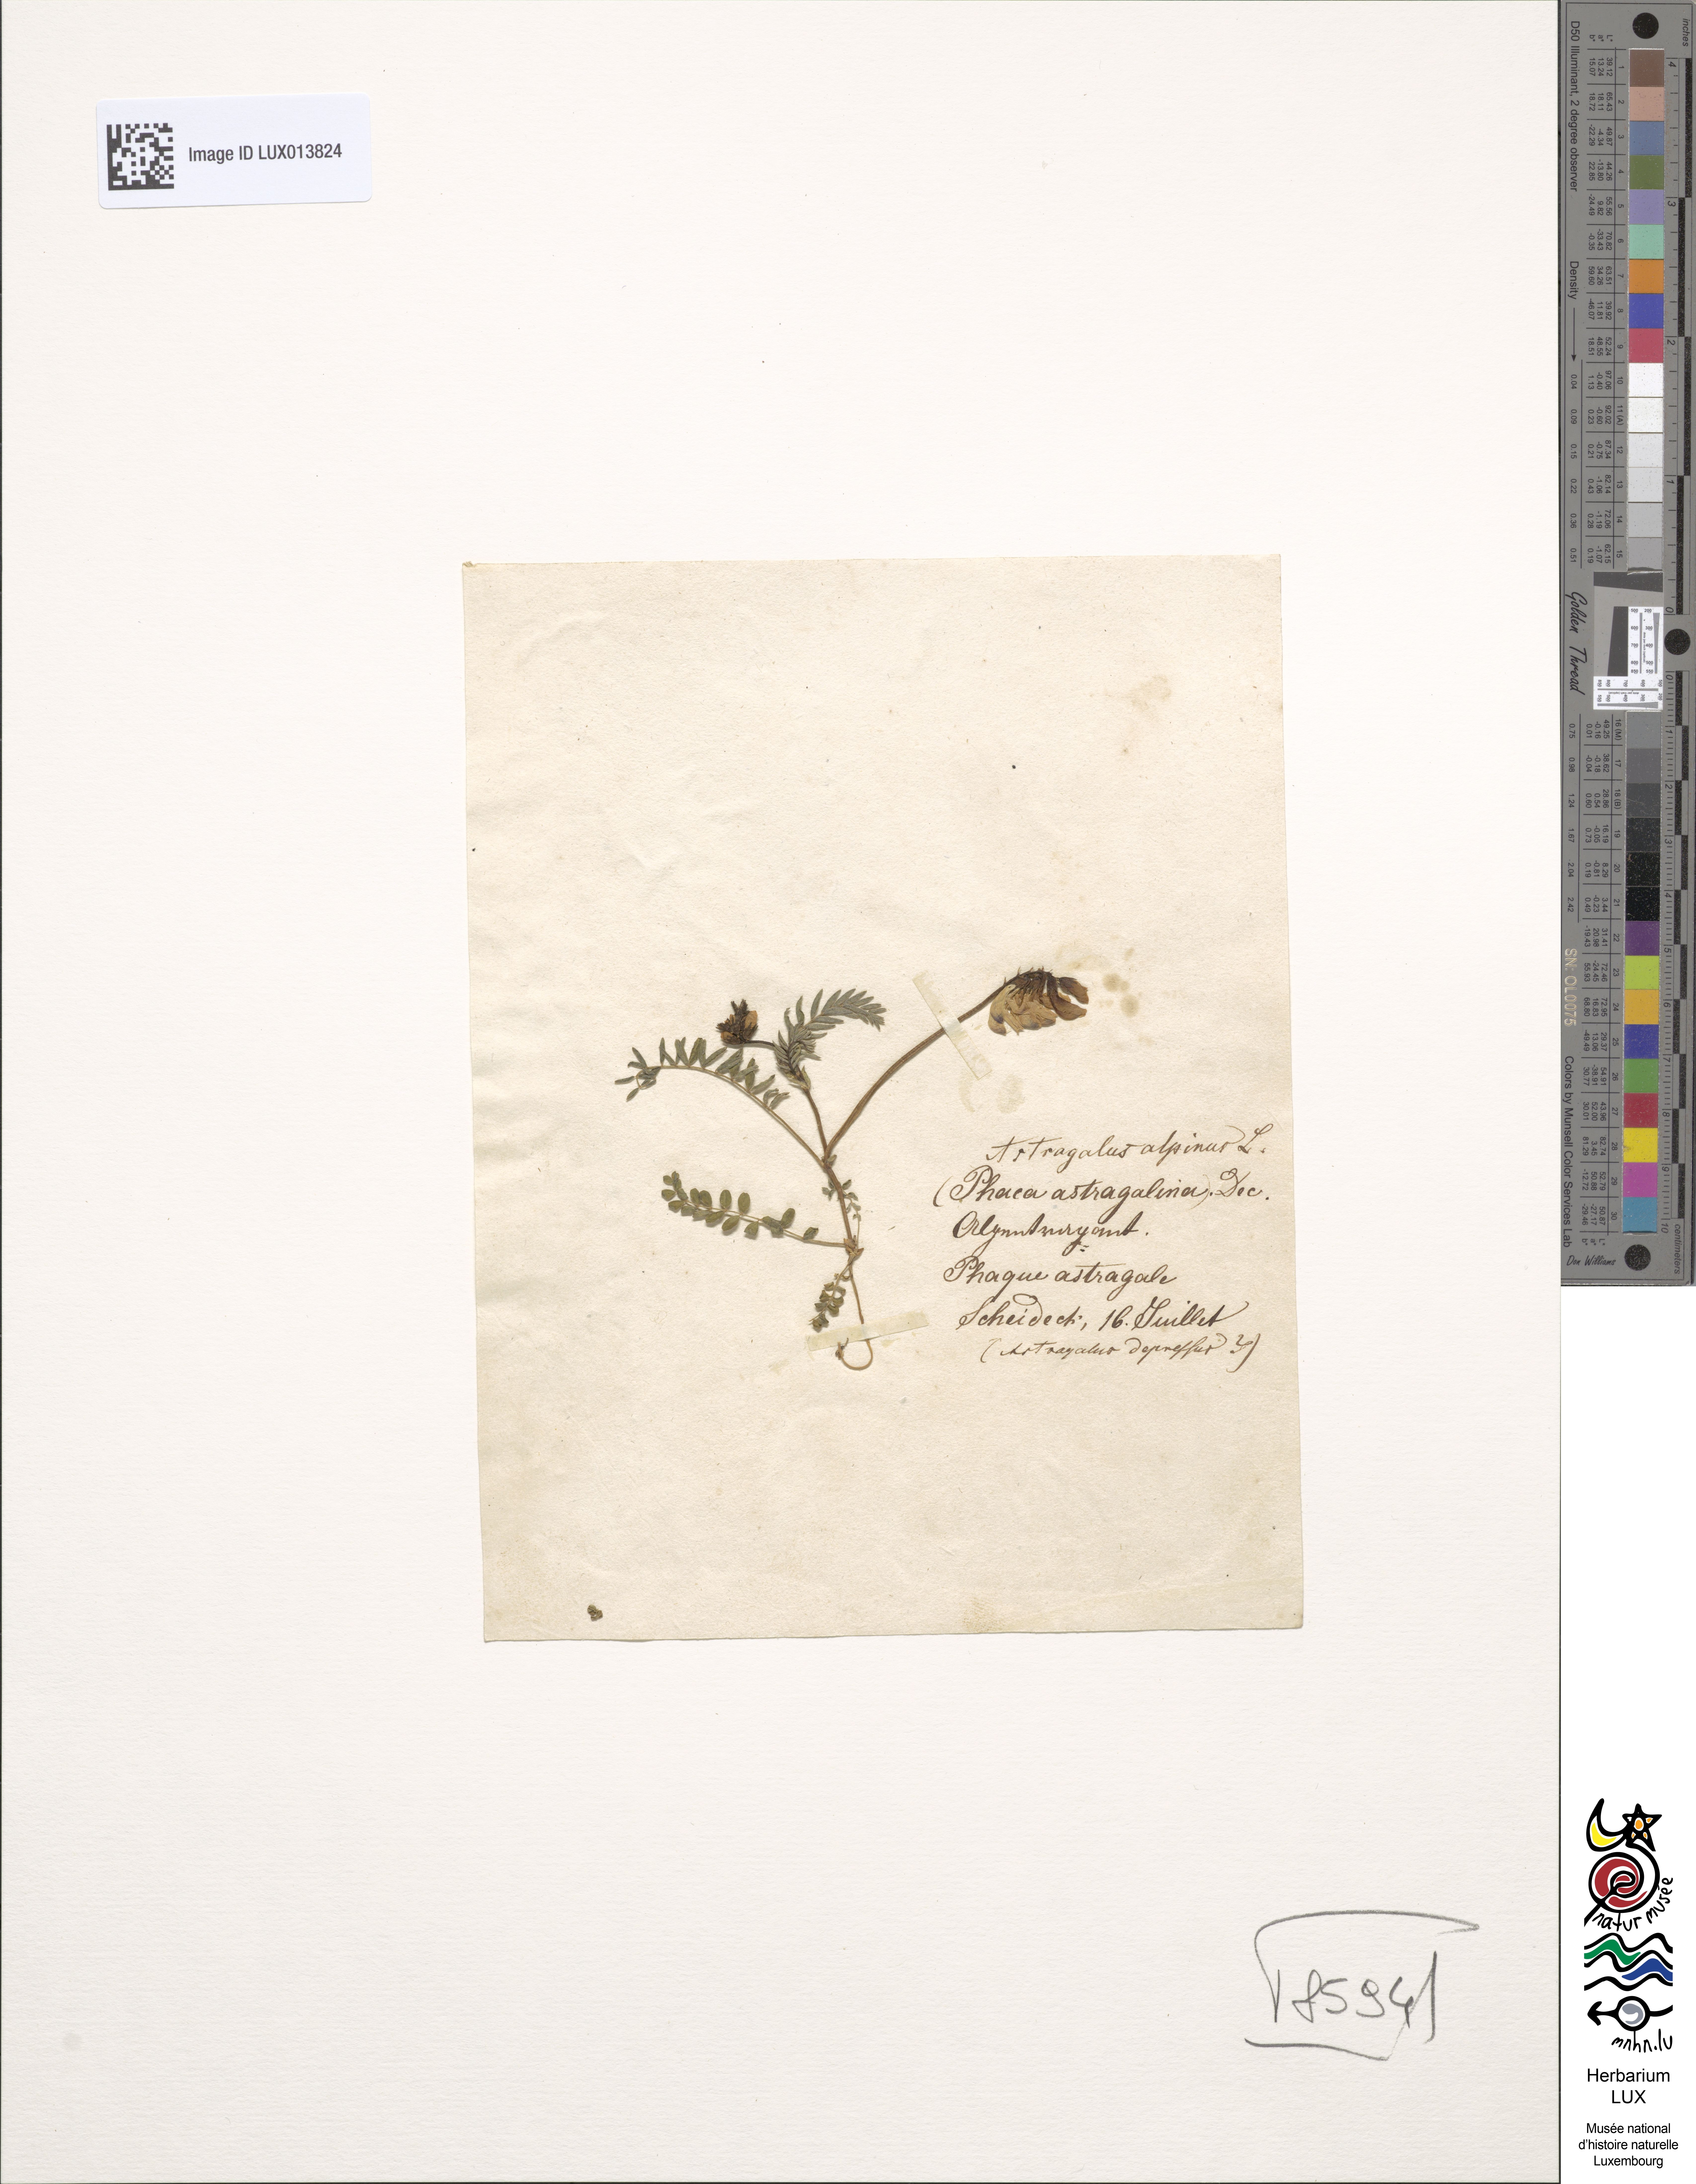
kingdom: Plantae
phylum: Tracheophyta
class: Magnoliopsida
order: Fabales
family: Fabaceae
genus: Astragalus
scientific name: Astragalus alpinus
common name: Alpine milk-vetch
